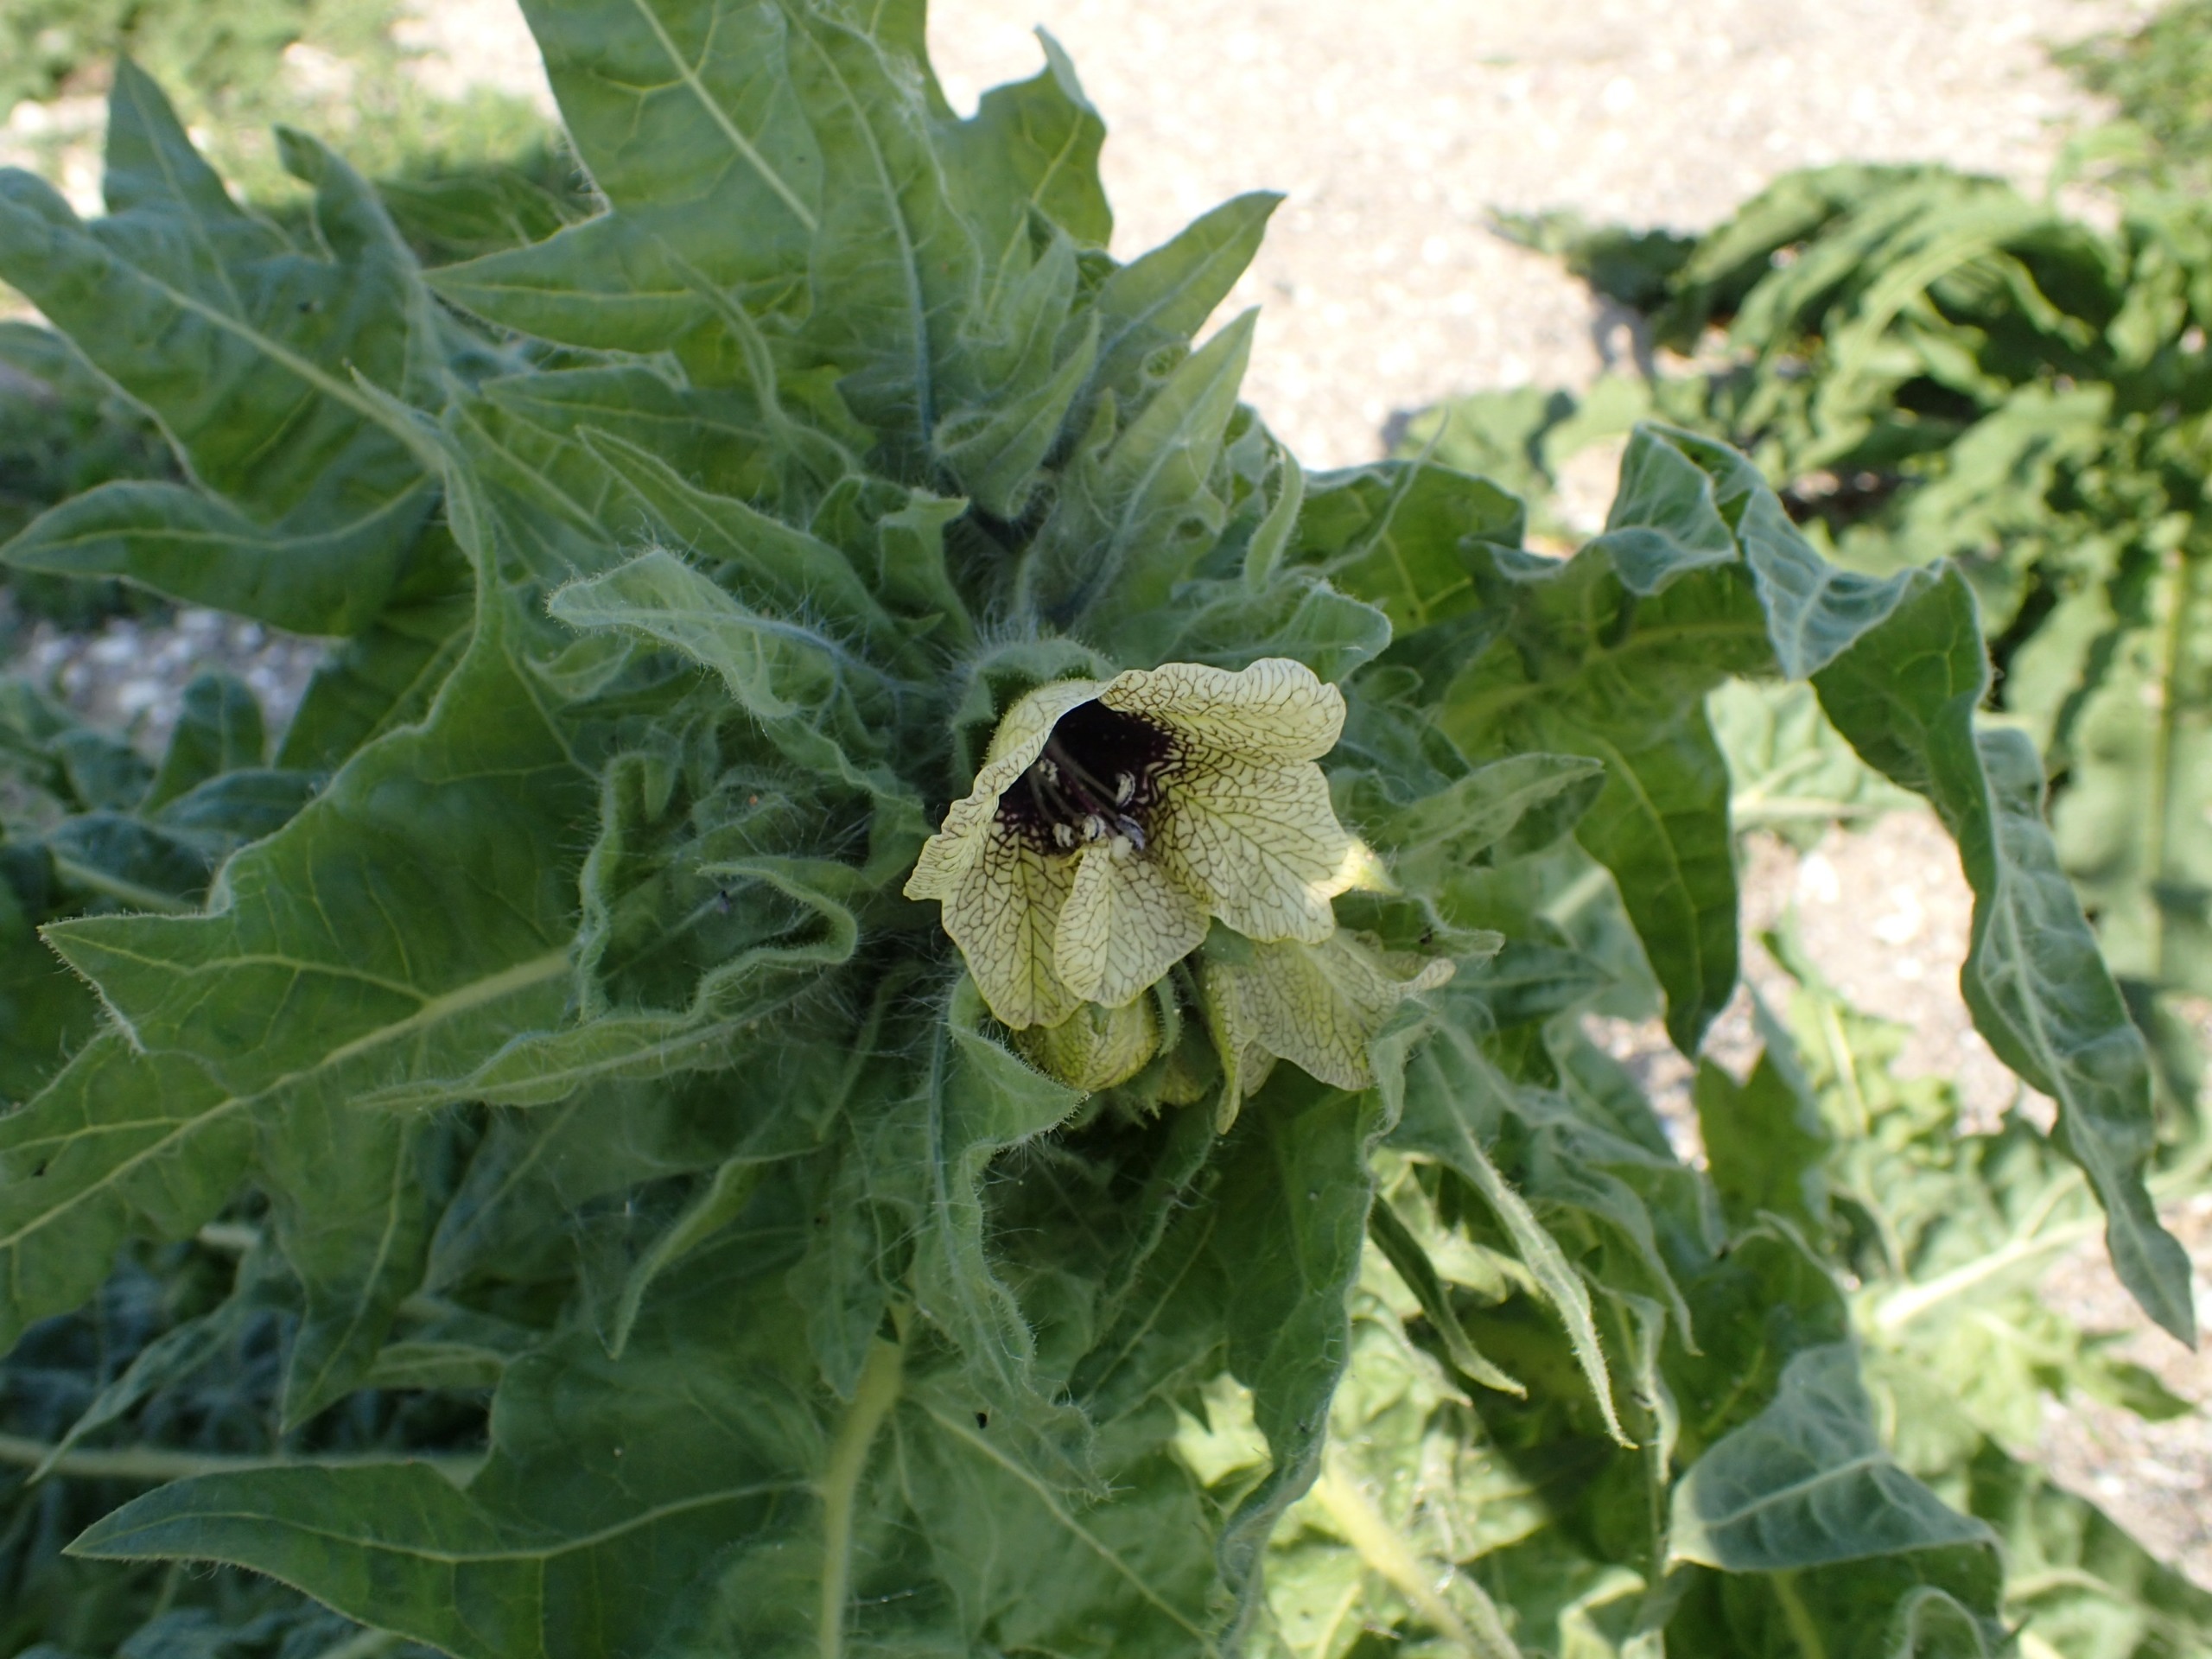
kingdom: Plantae
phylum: Tracheophyta
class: Magnoliopsida
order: Solanales
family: Solanaceae
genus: Hyoscyamus
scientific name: Hyoscyamus niger
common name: Bulmeurt
